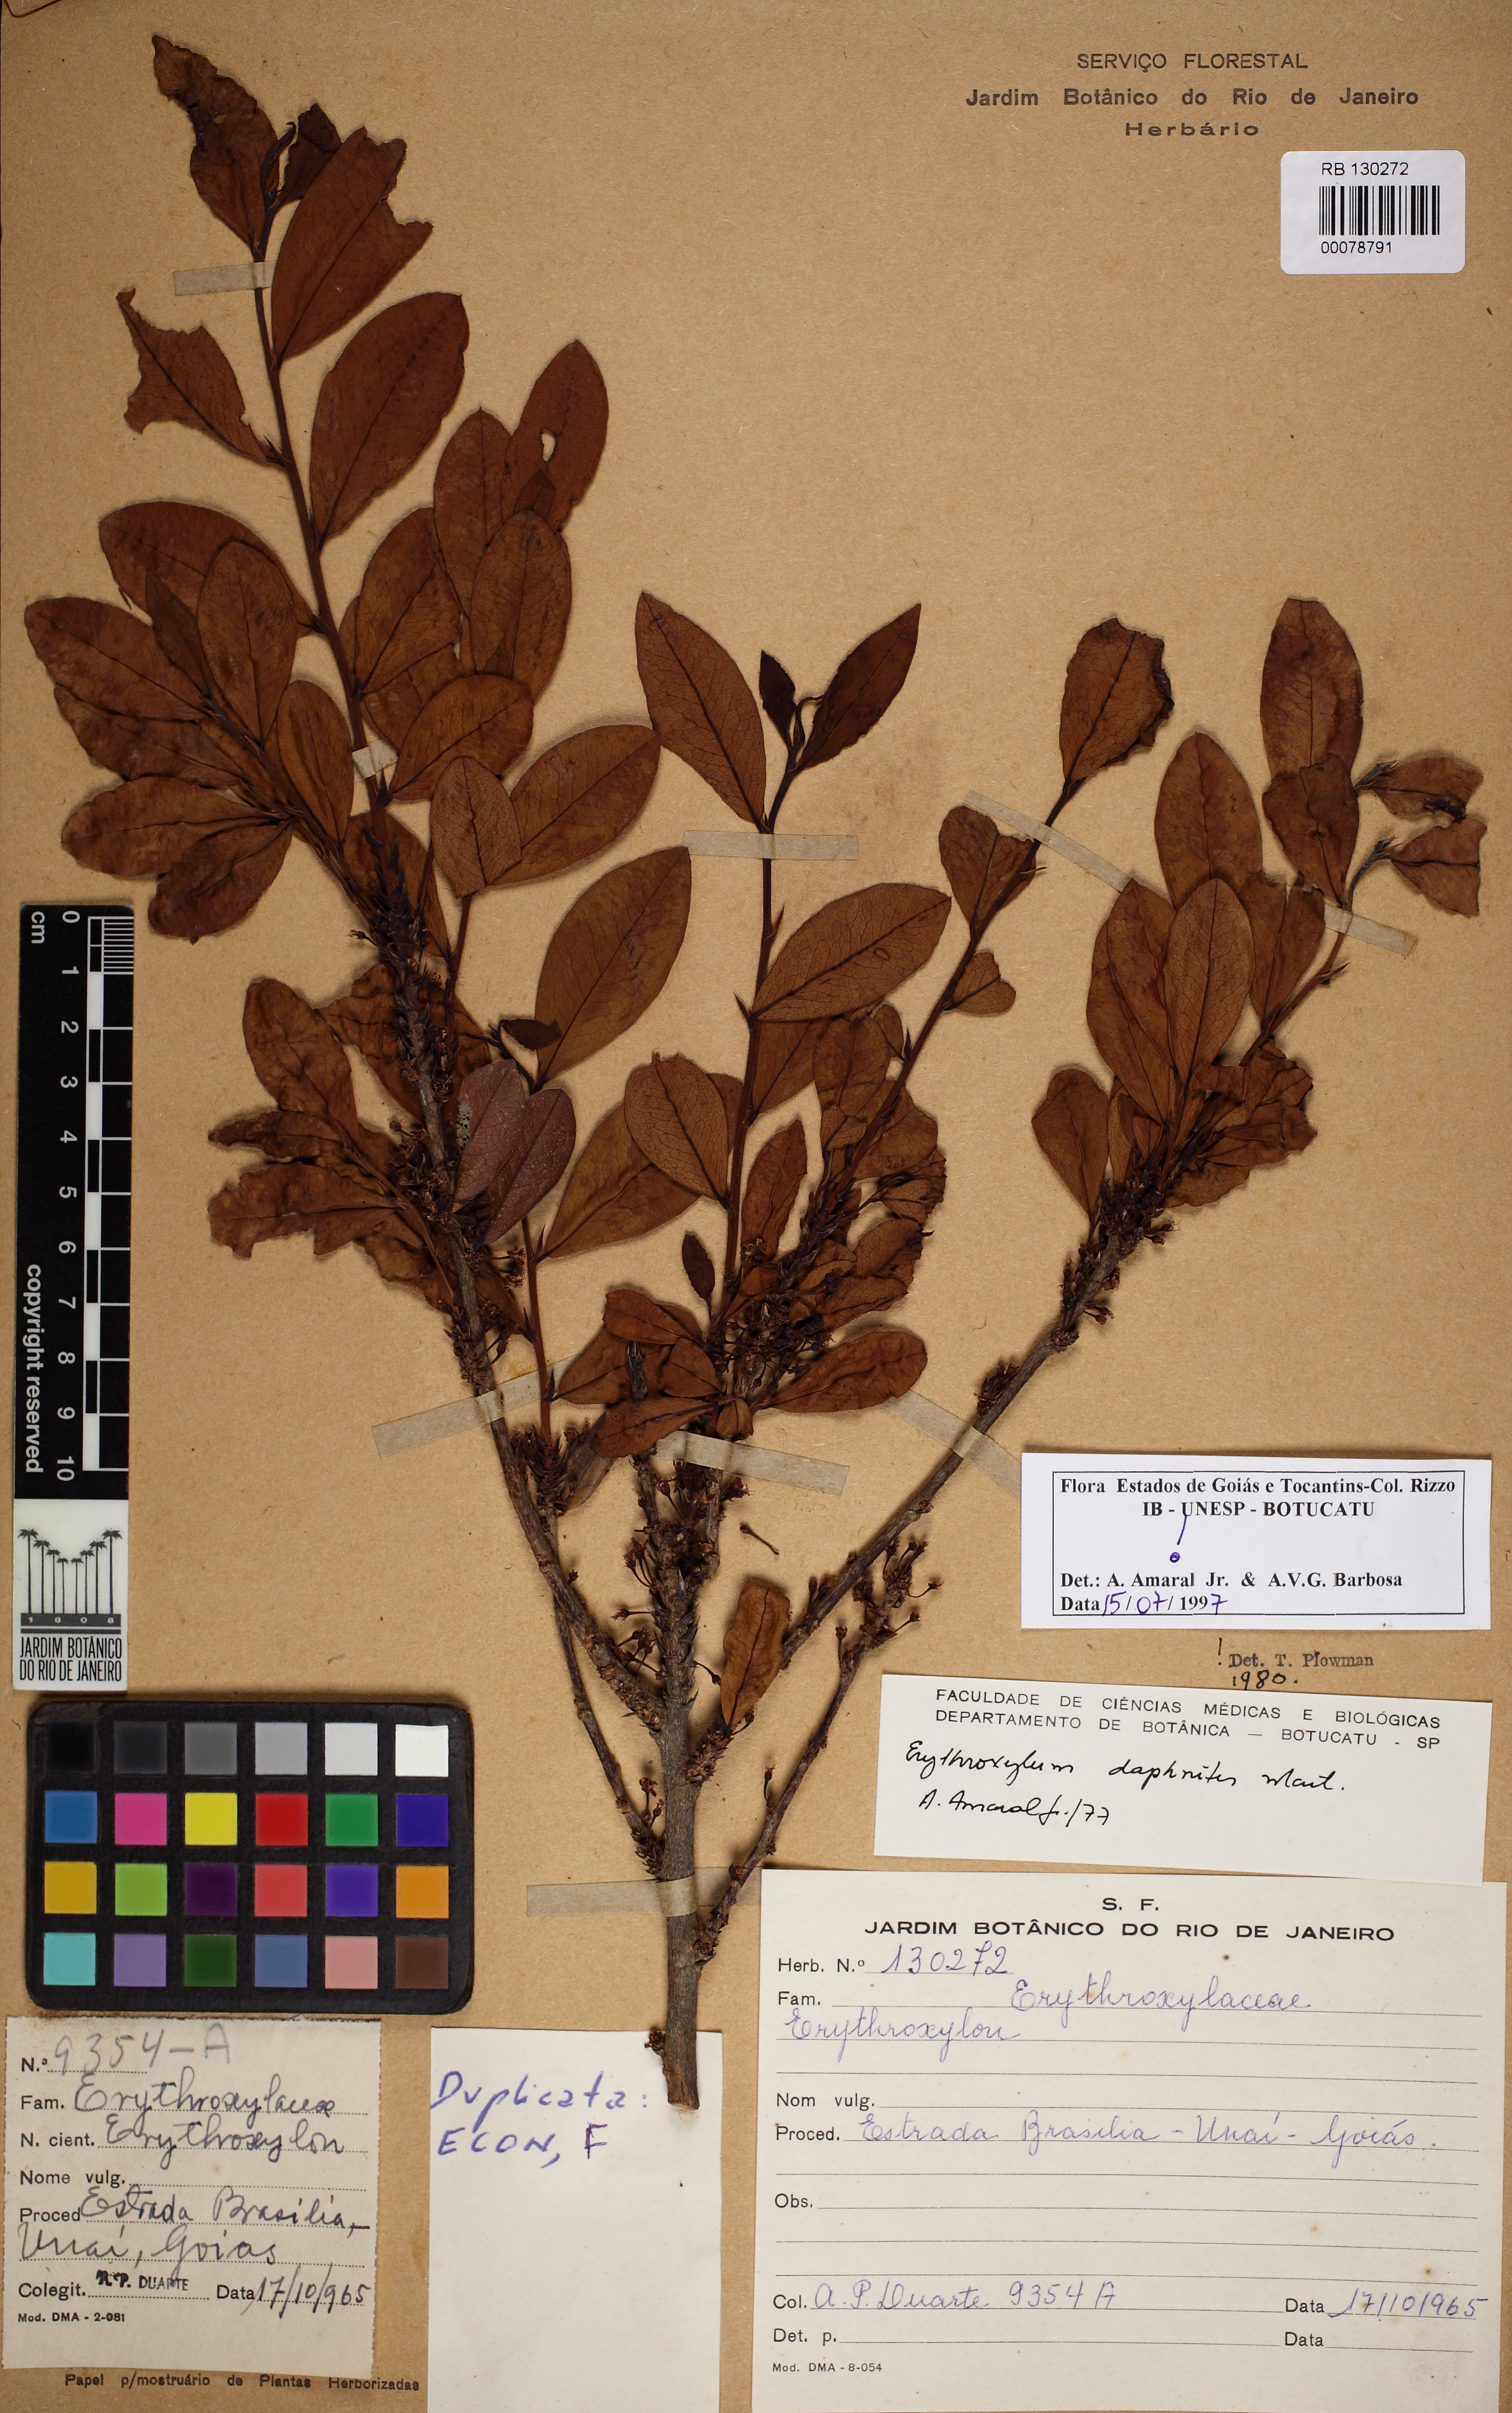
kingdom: Plantae
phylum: Tracheophyta
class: Magnoliopsida
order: Malpighiales
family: Erythroxylaceae
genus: Erythroxylum
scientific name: Erythroxylum daphnites
